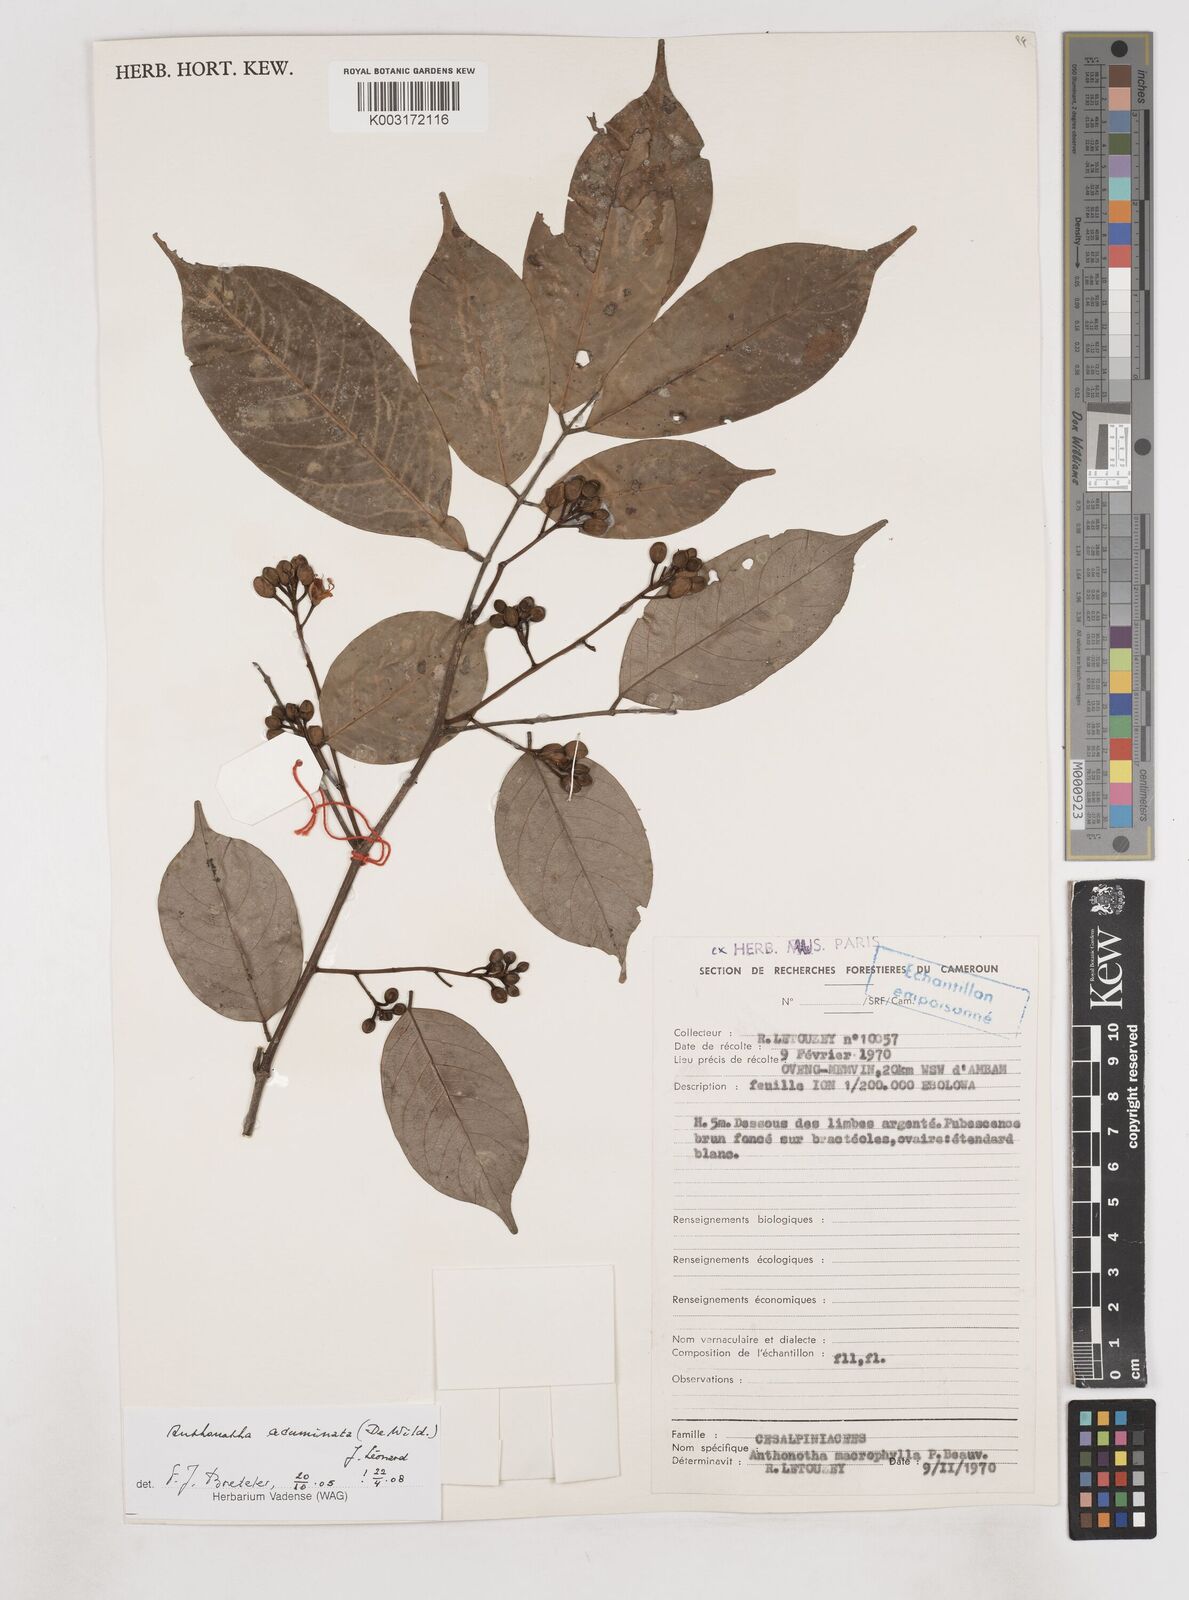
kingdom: Plantae
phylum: Tracheophyta
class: Magnoliopsida
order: Fabales
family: Fabaceae
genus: Anthonotha
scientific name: Anthonotha acuminata
